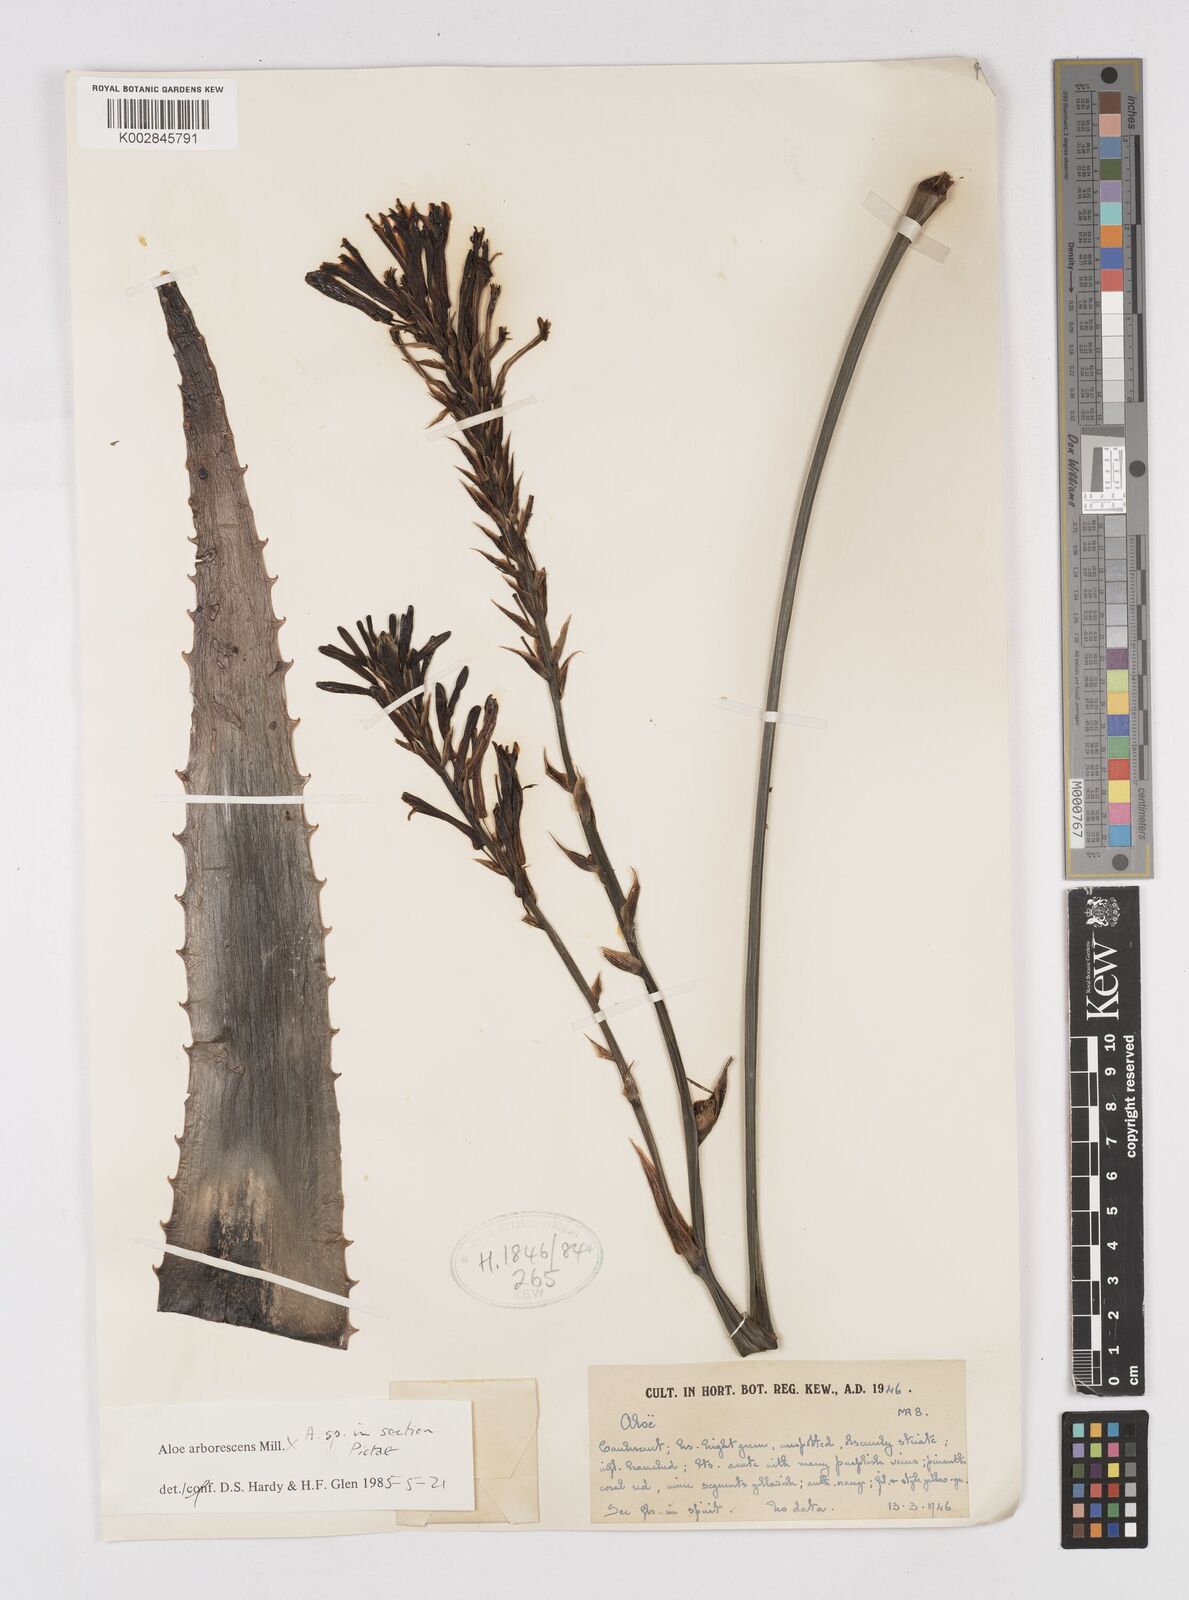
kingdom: Plantae
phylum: Tracheophyta
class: Liliopsida
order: Asparagales
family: Asphodelaceae
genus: Aloe
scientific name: Aloe arborescens
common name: Candelabra aloe
